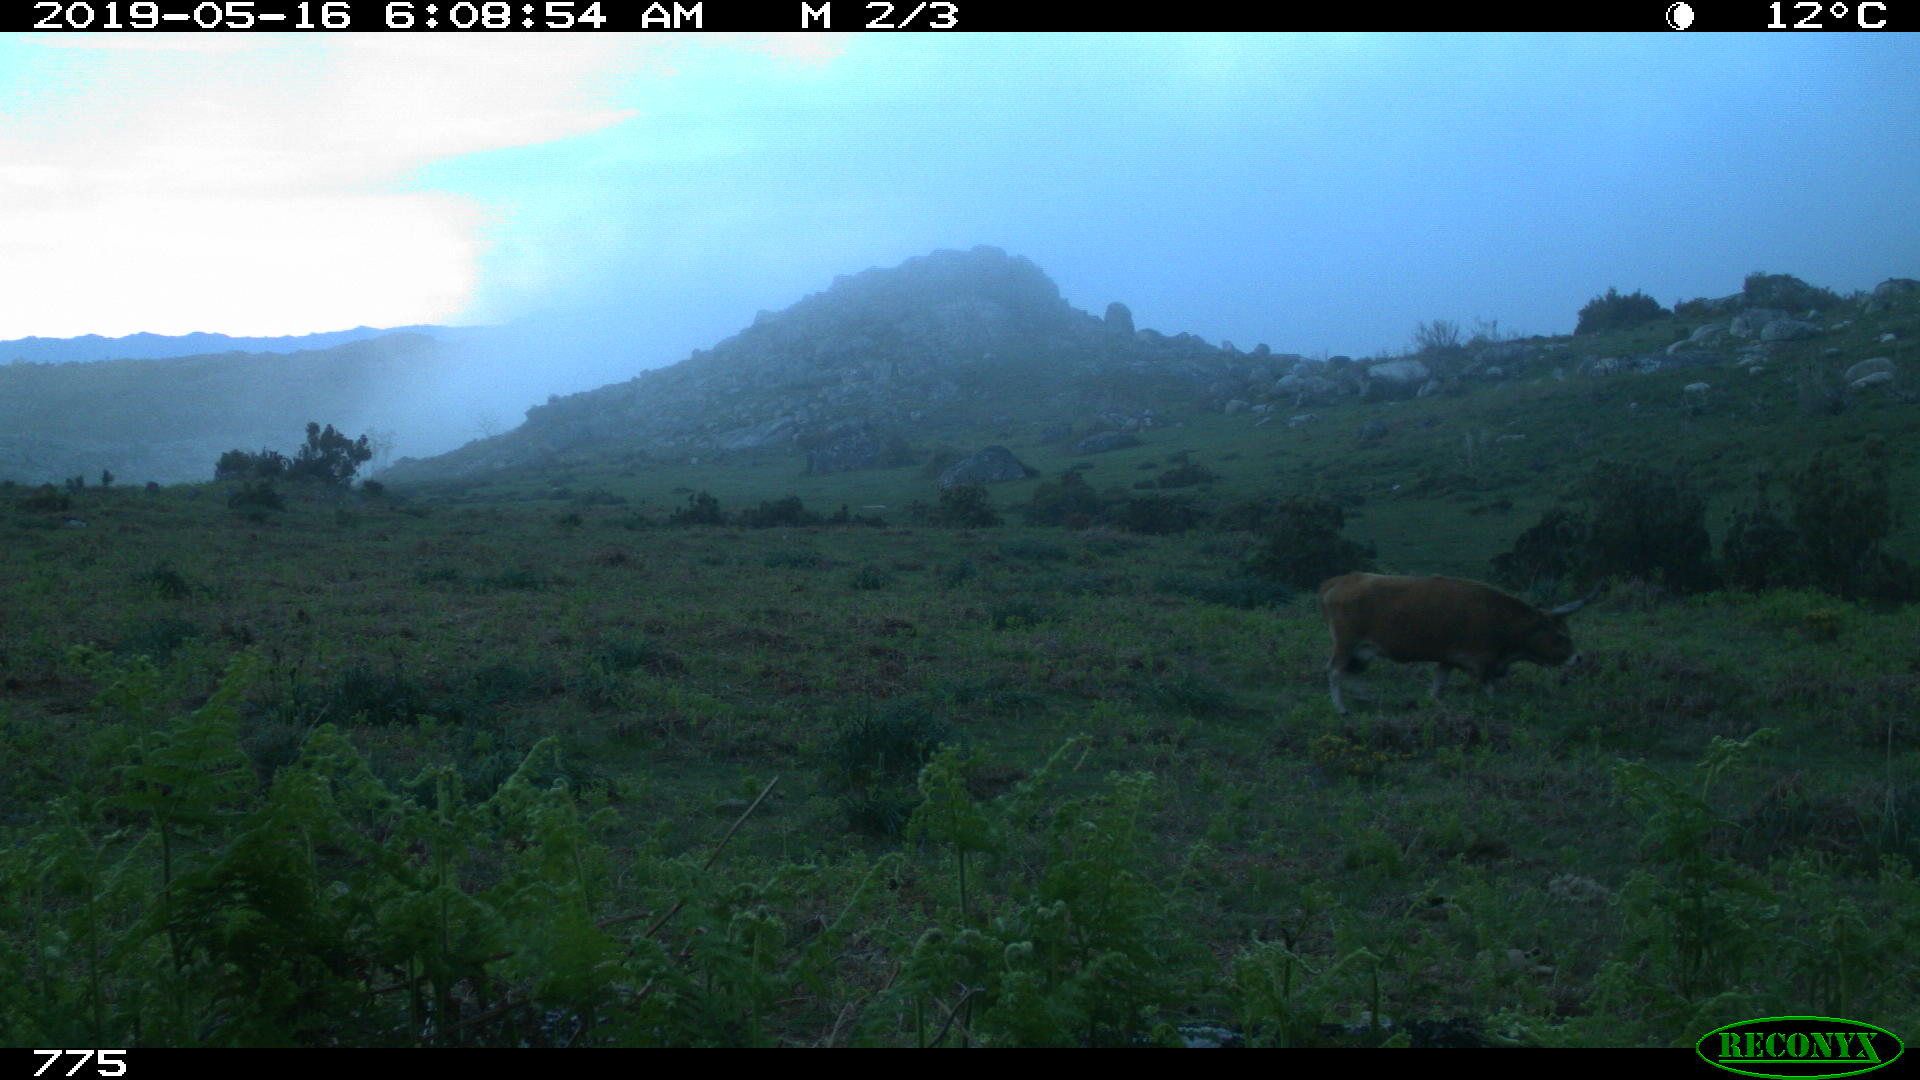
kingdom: Animalia
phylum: Chordata
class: Mammalia
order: Artiodactyla
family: Bovidae
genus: Bos
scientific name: Bos taurus
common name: Domesticated cattle
